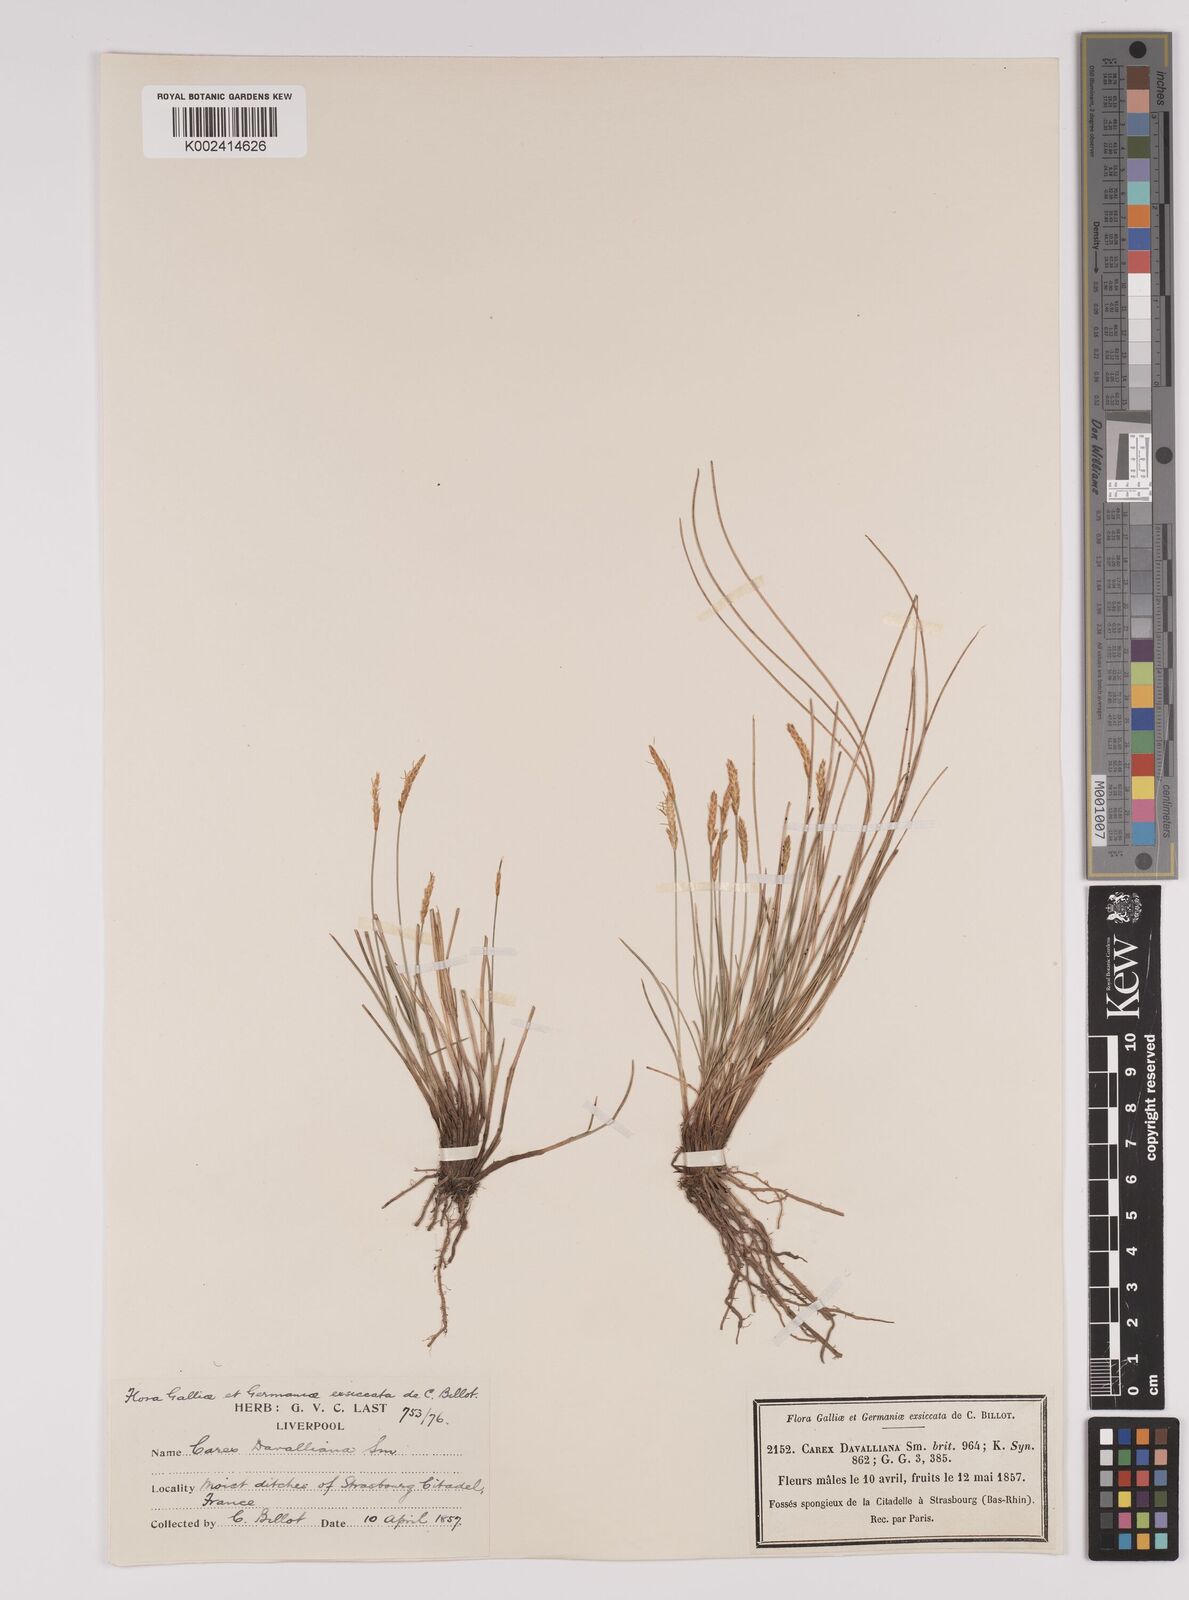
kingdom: Plantae
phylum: Tracheophyta
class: Liliopsida
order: Poales
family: Cyperaceae
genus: Carex
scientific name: Carex davalliana
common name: Davall's sedge
